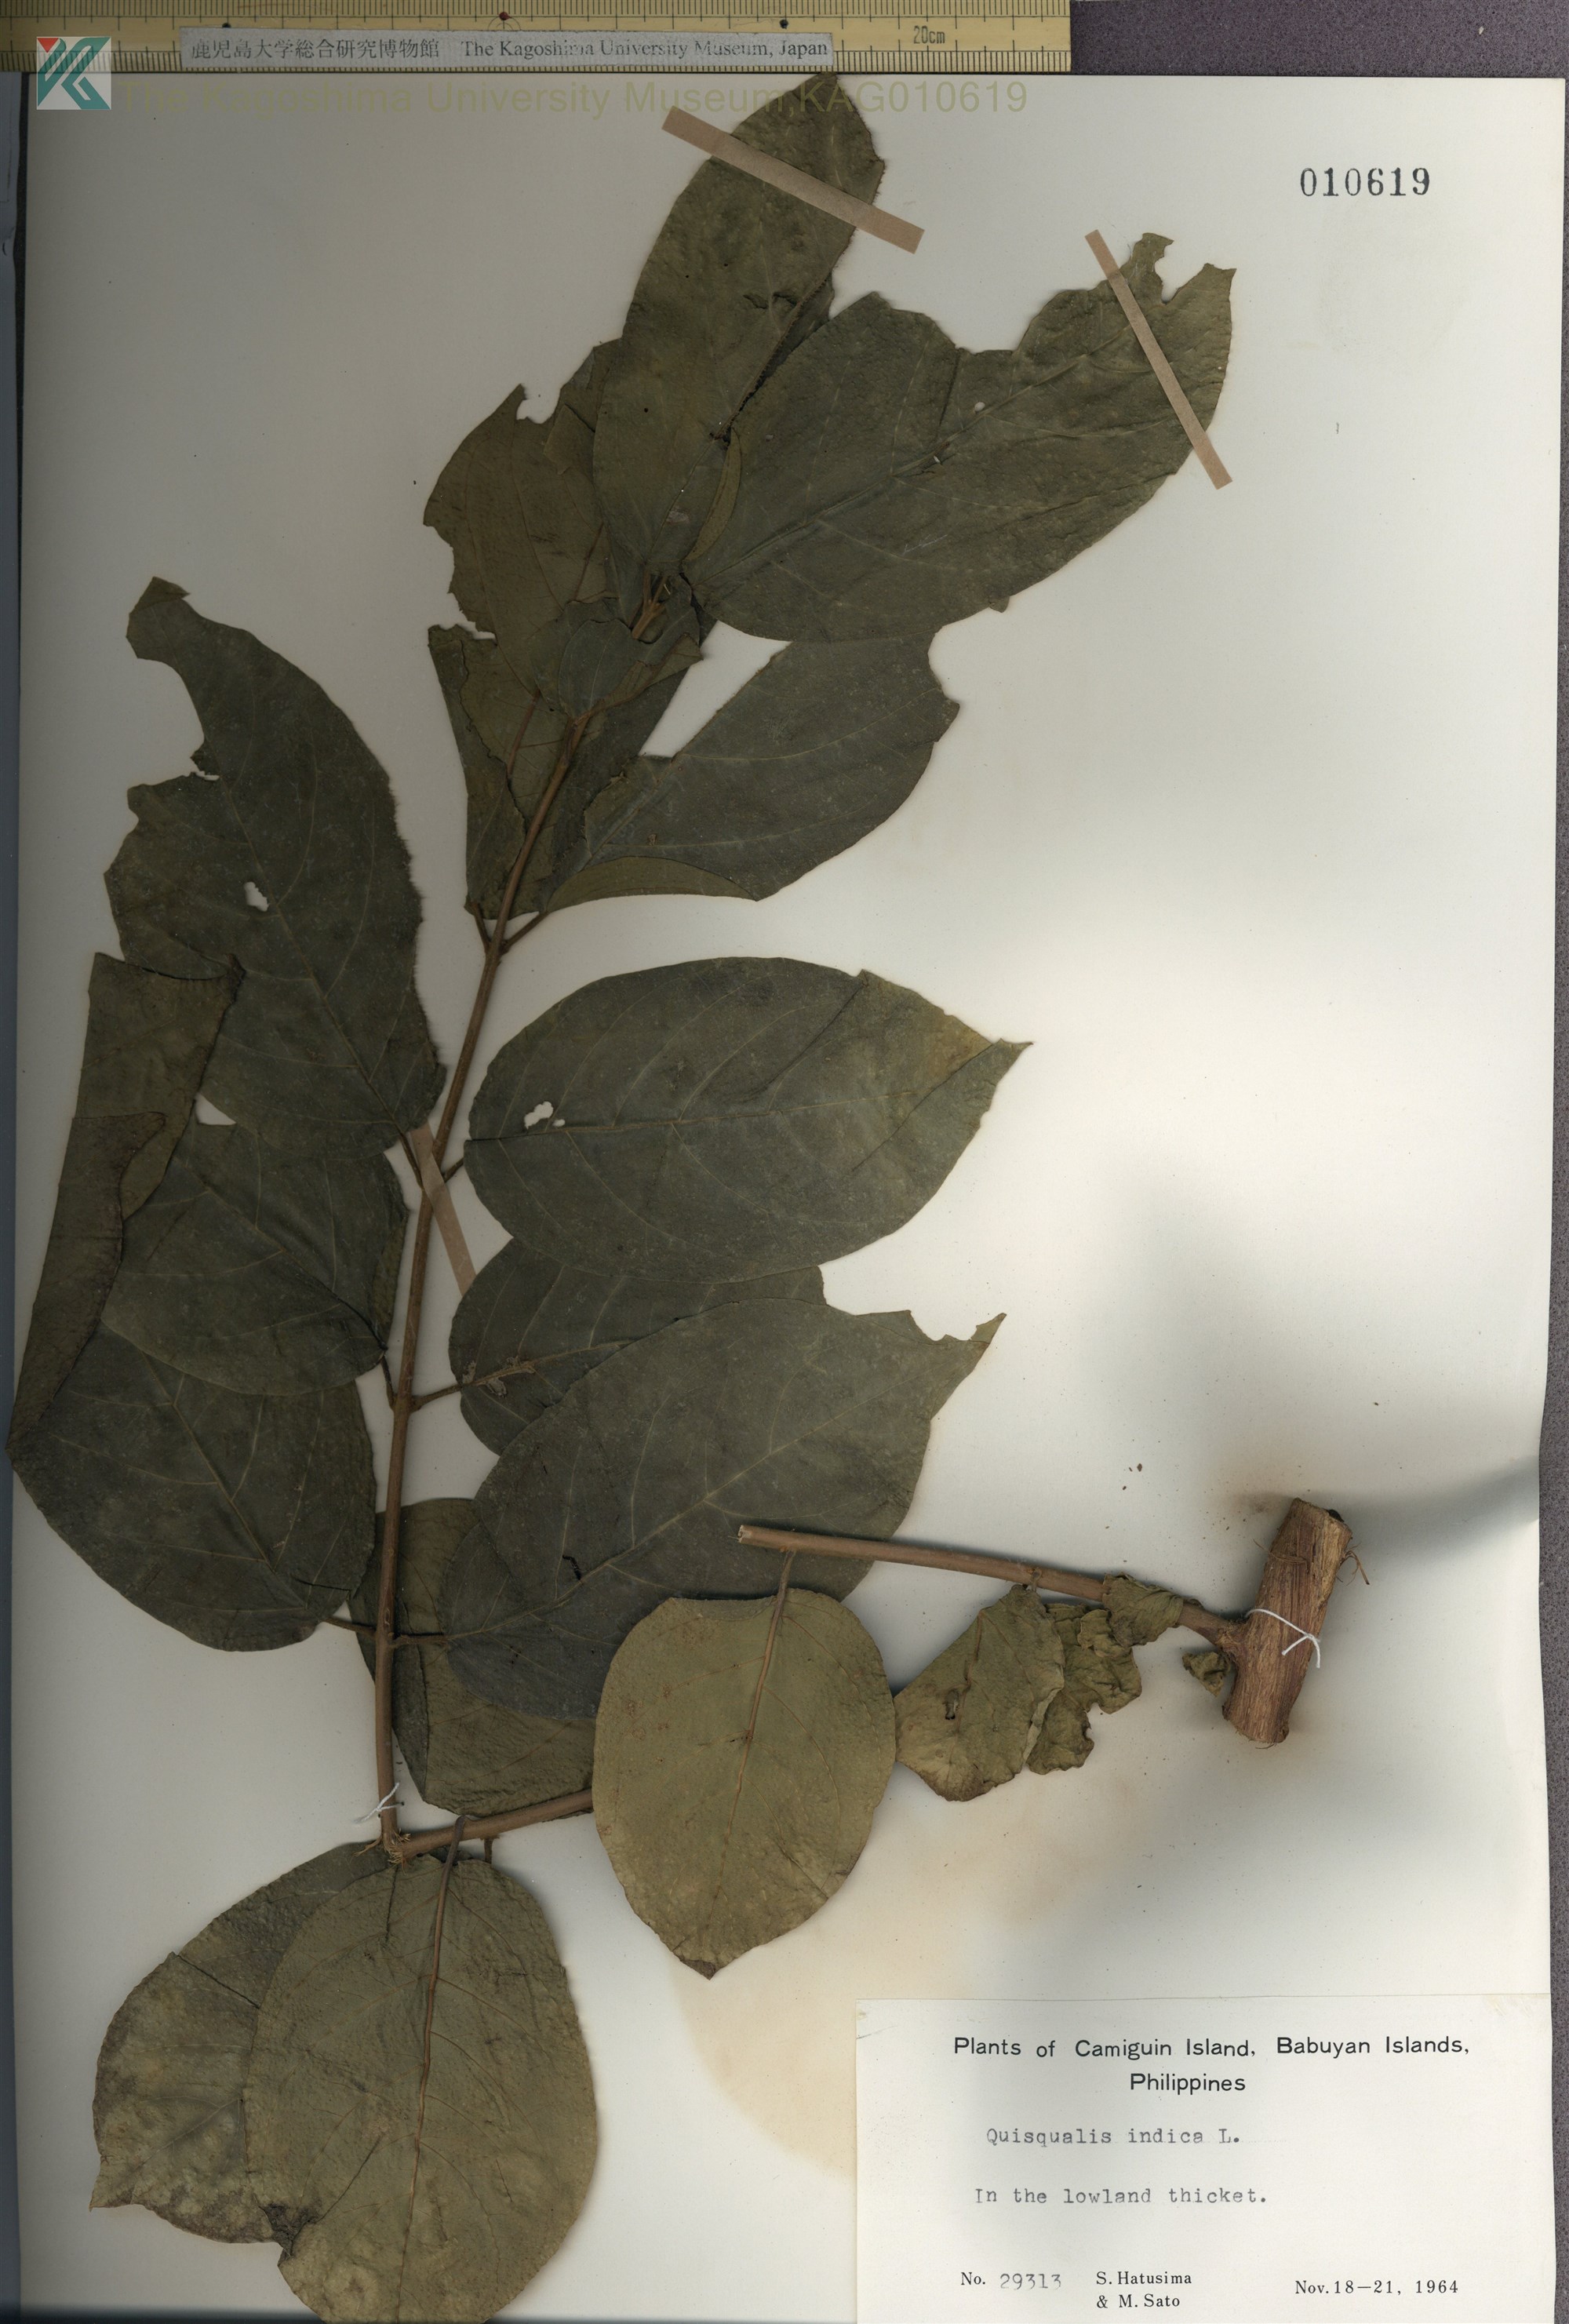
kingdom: Plantae
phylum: Tracheophyta
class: Magnoliopsida
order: Myrtales
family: Combretaceae
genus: Combretum
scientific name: Combretum indicum
